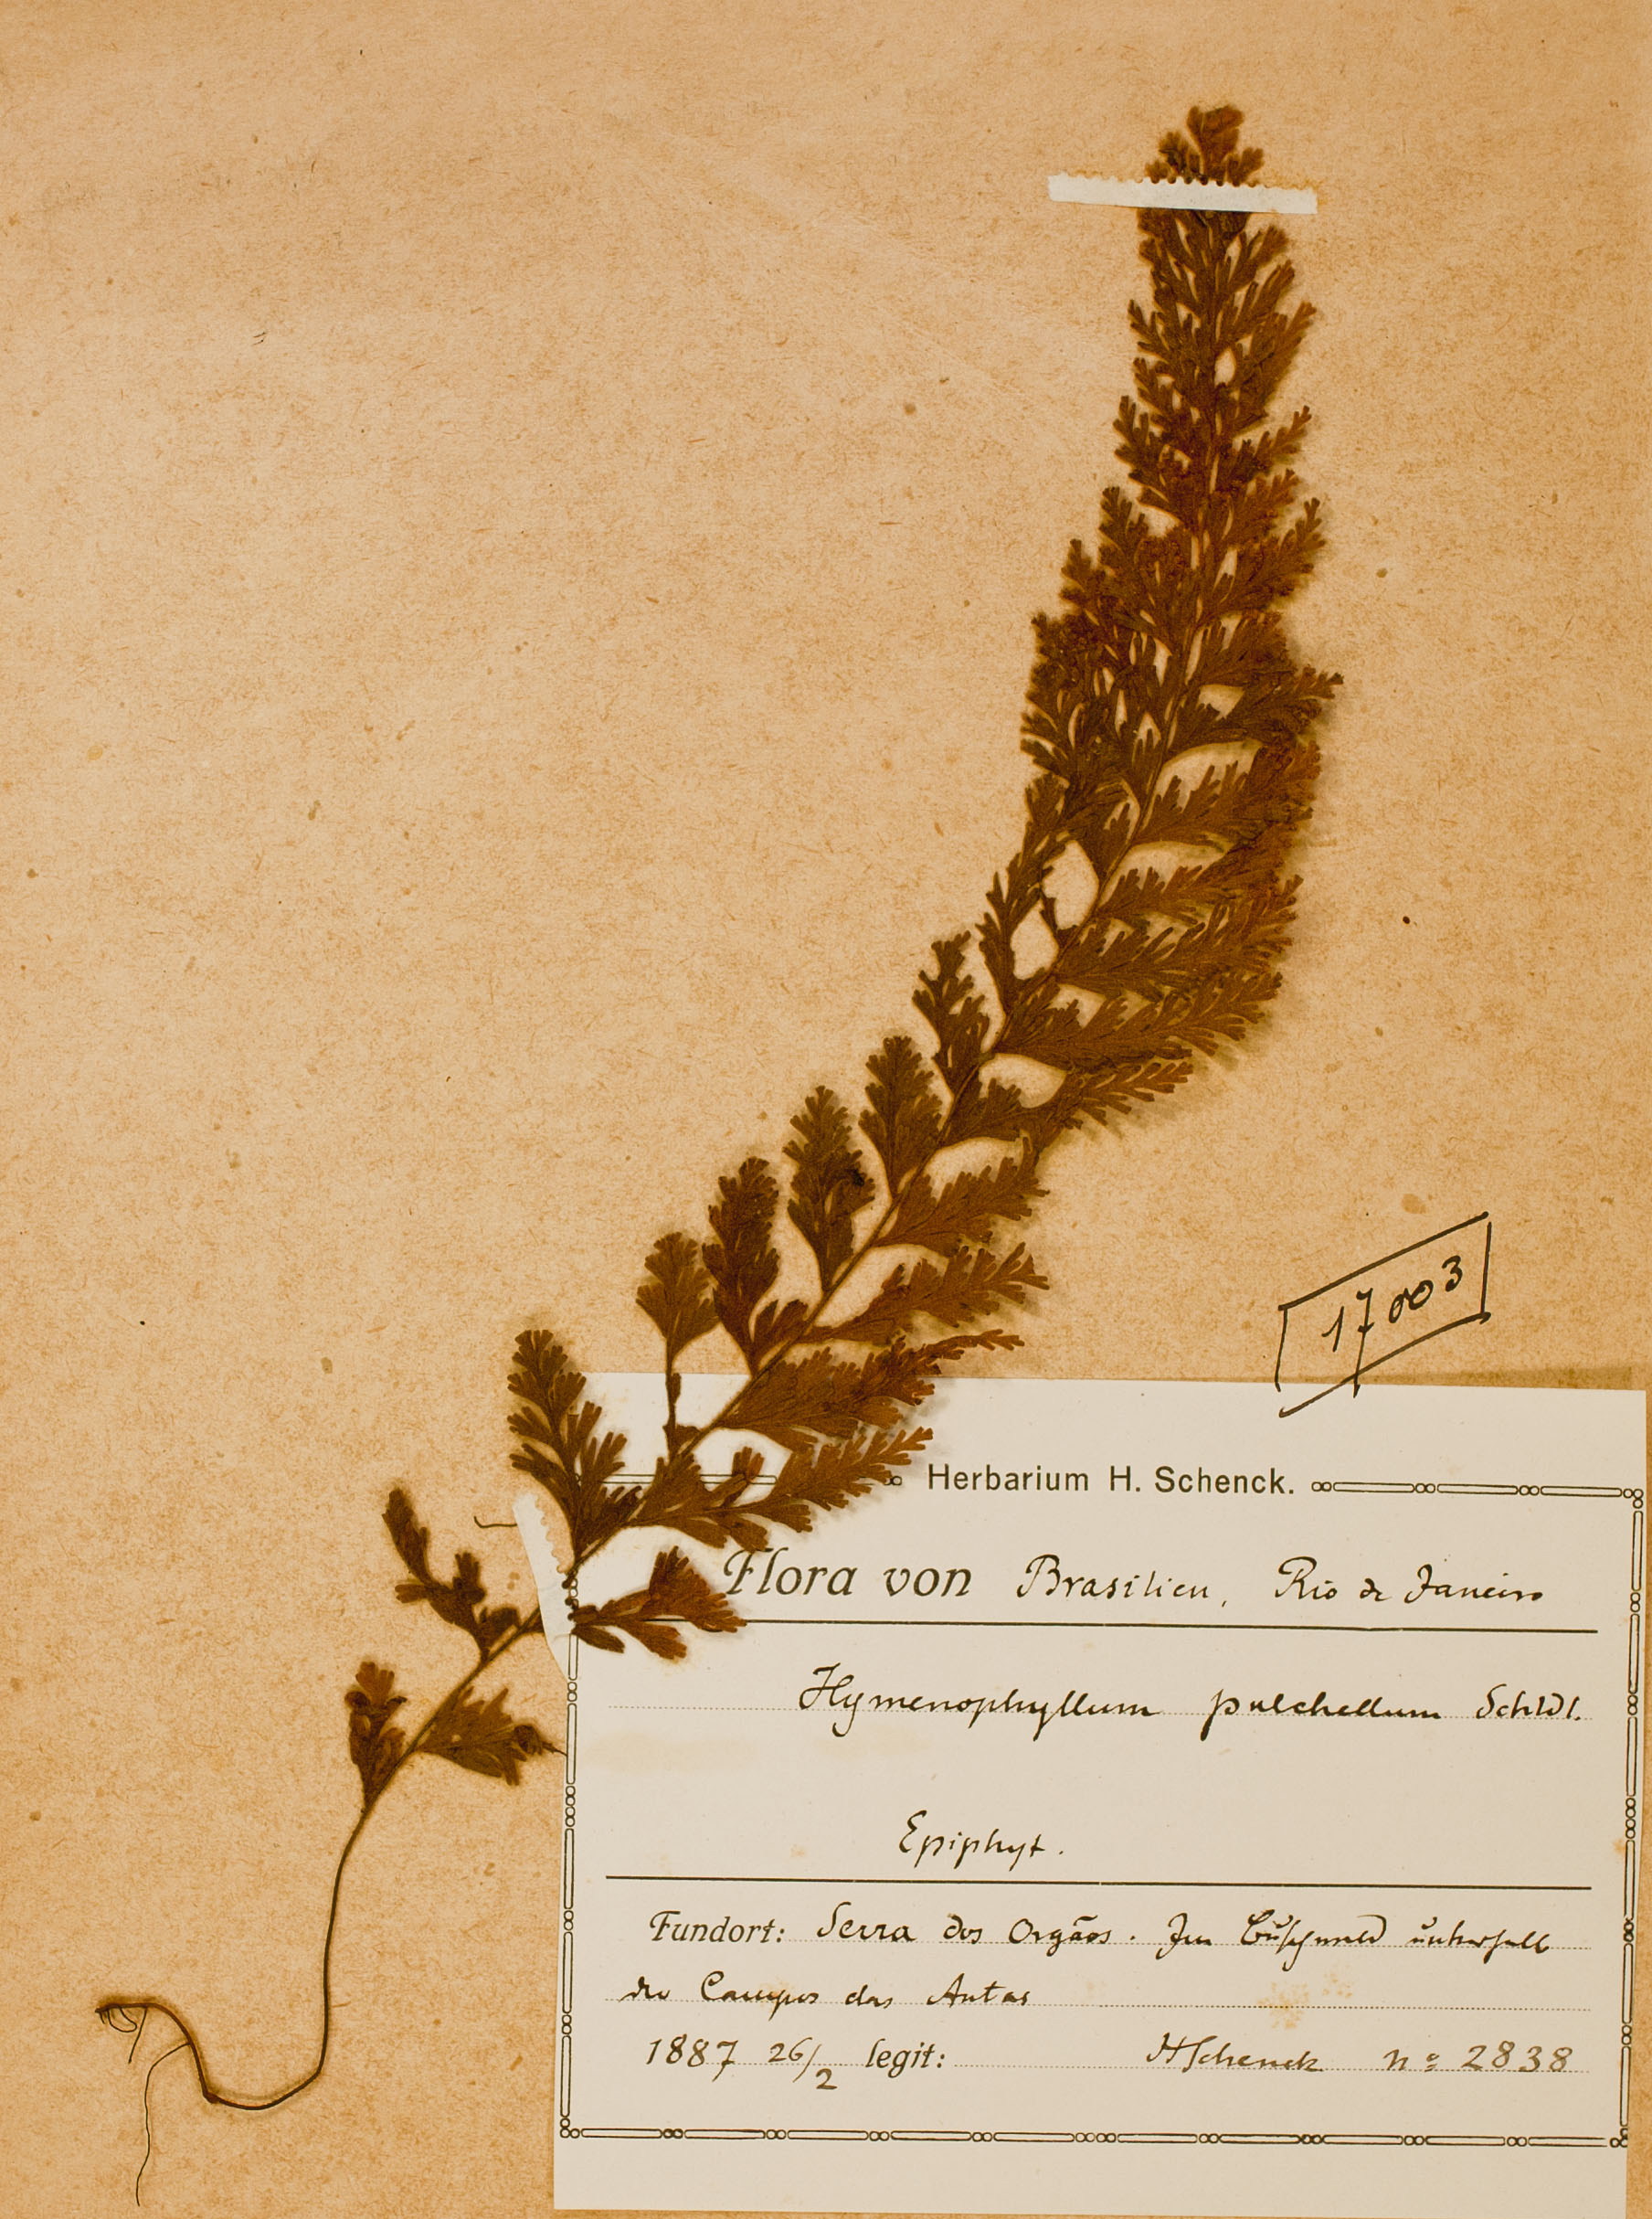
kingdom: Plantae
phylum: Tracheophyta
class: Polypodiopsida
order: Hymenophyllales
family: Hymenophyllaceae
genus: Hymenophyllum
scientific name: Hymenophyllum pulchellum
